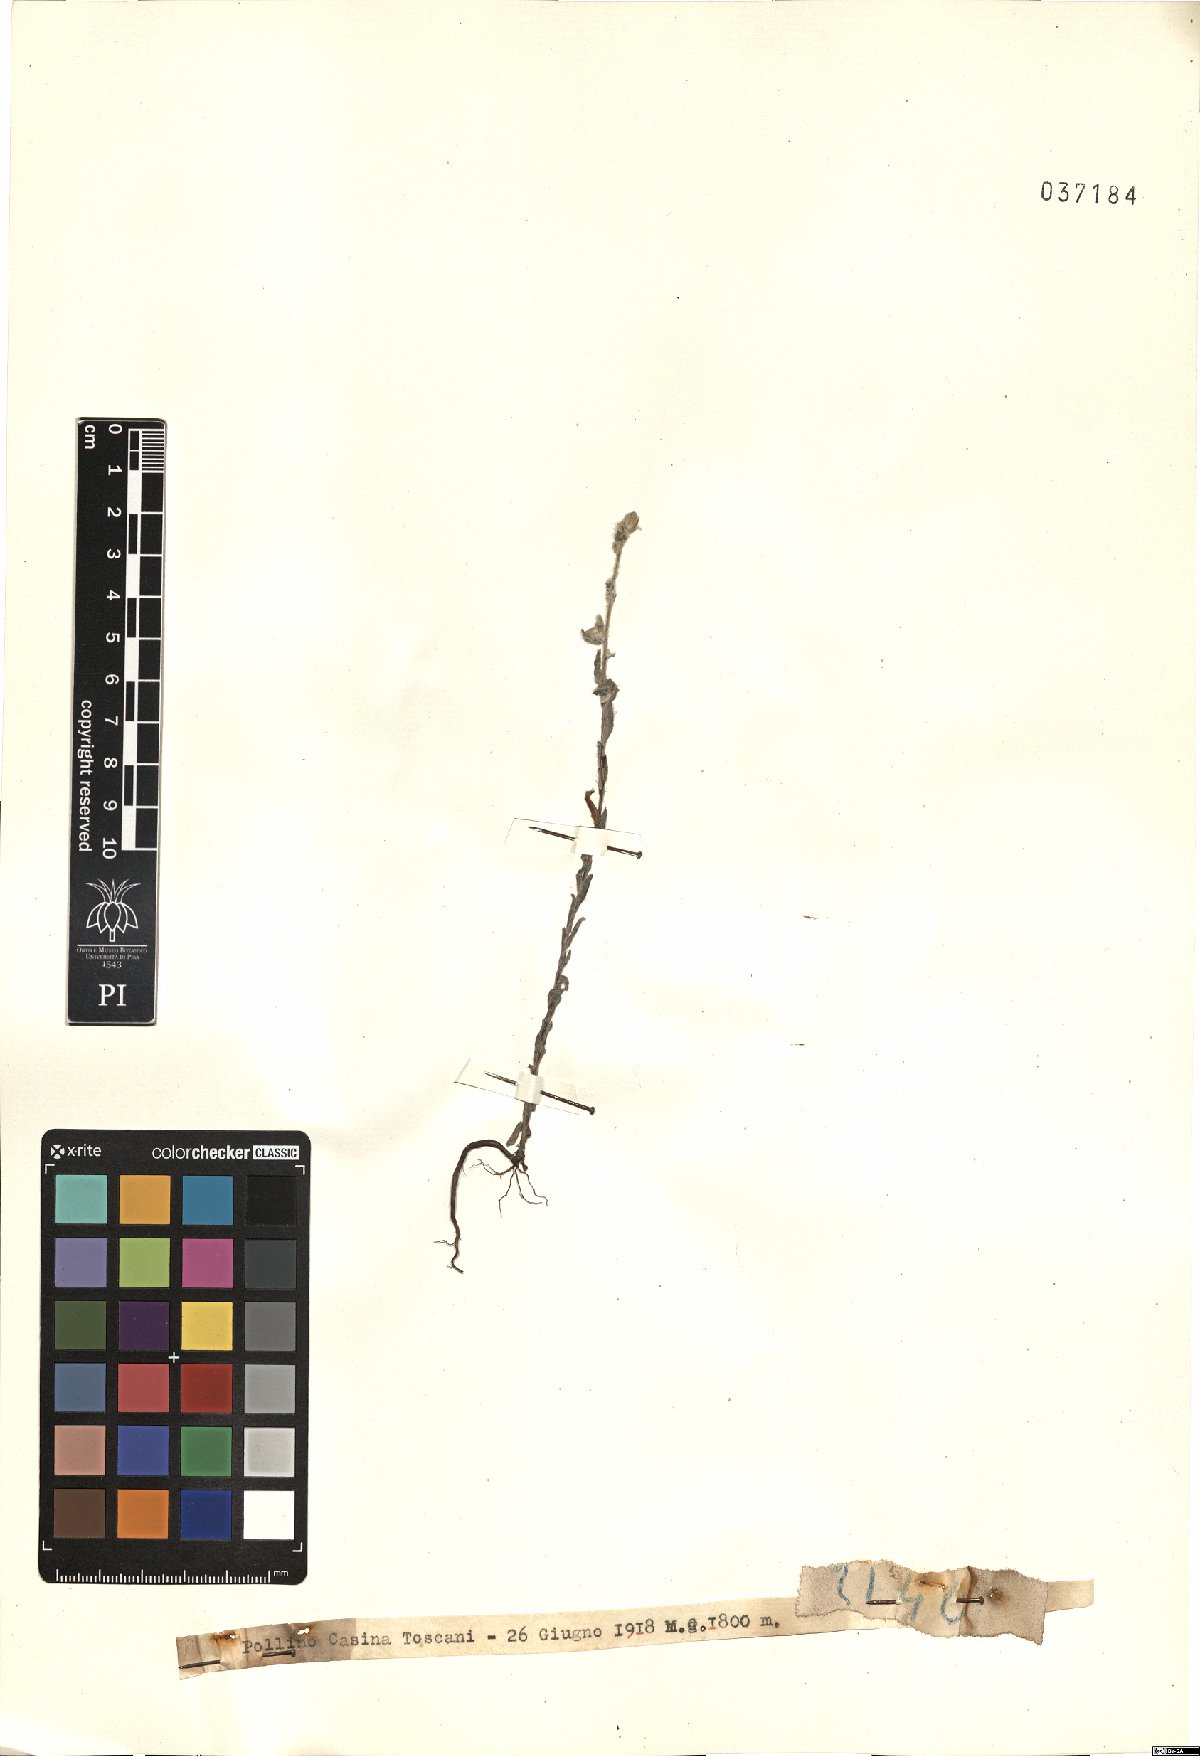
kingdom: Plantae
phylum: Tracheophyta
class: Magnoliopsida
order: Asterales
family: Asteraceae
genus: Filago
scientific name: Filago
